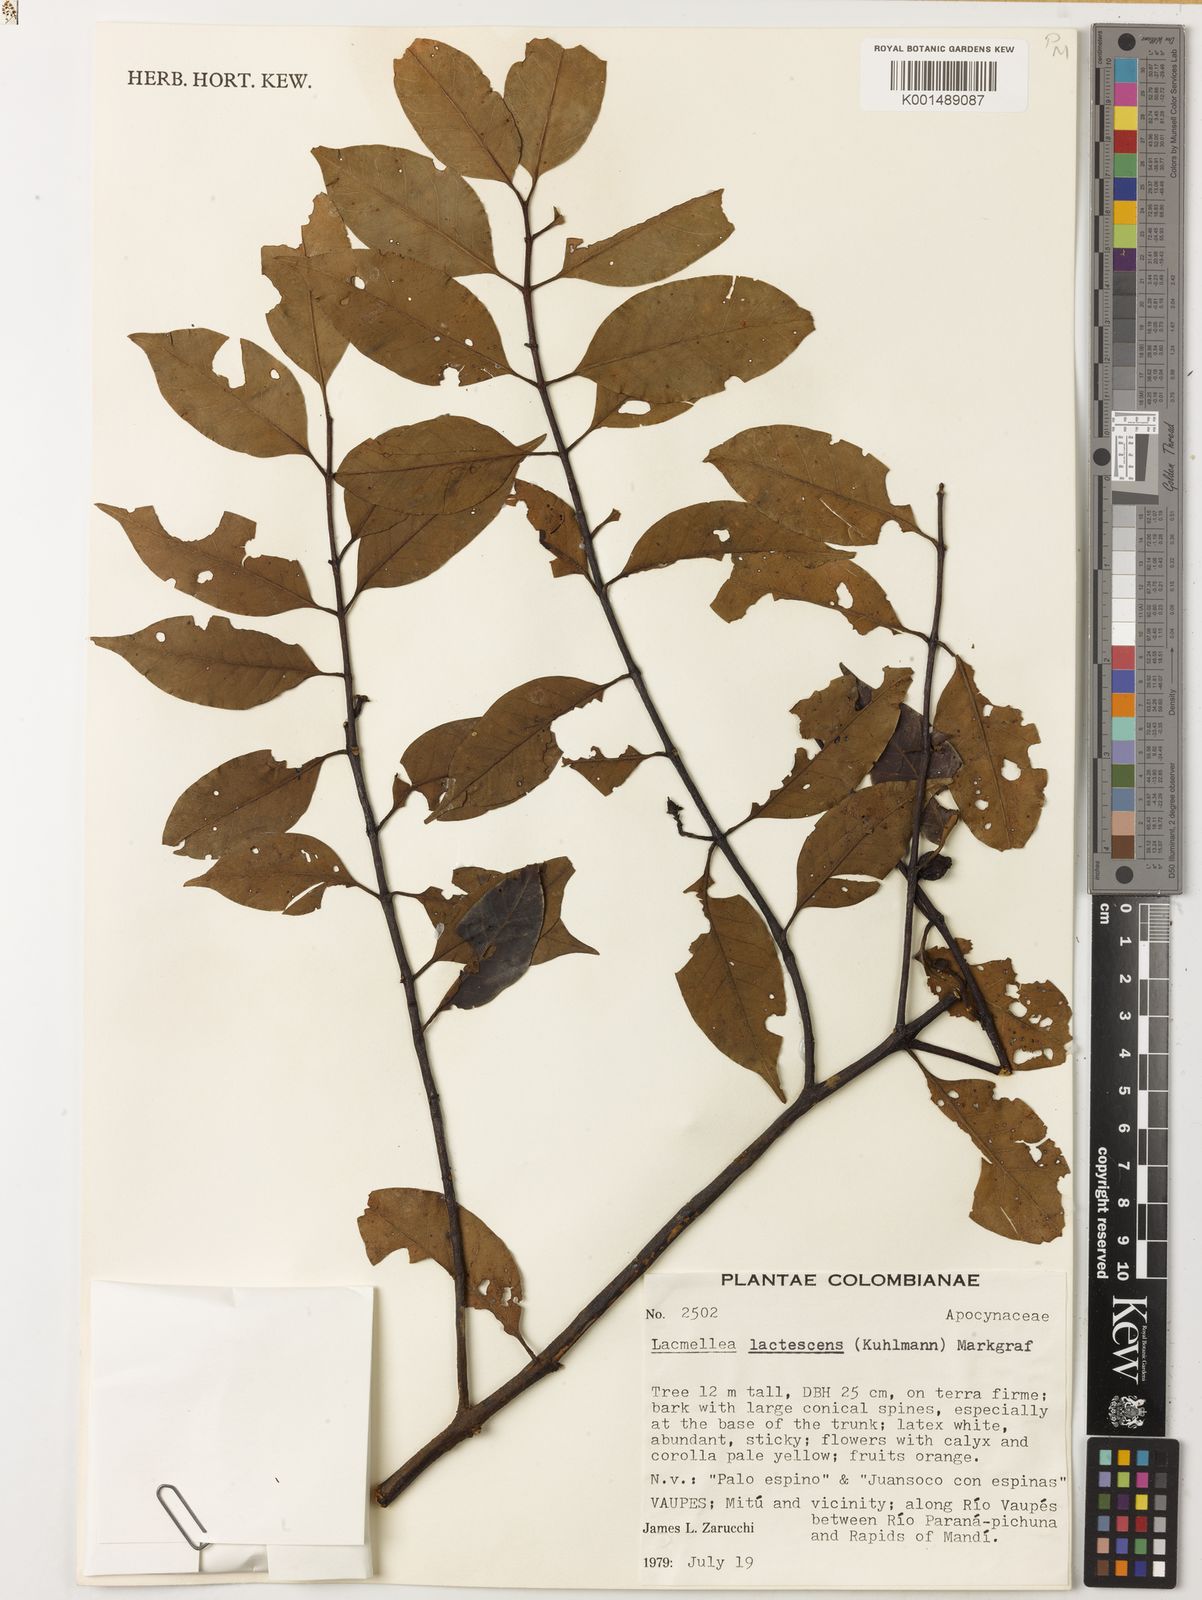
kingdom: Plantae
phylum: Tracheophyta
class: Magnoliopsida
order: Gentianales
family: Apocynaceae
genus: Lacmellea
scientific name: Lacmellea edulis
